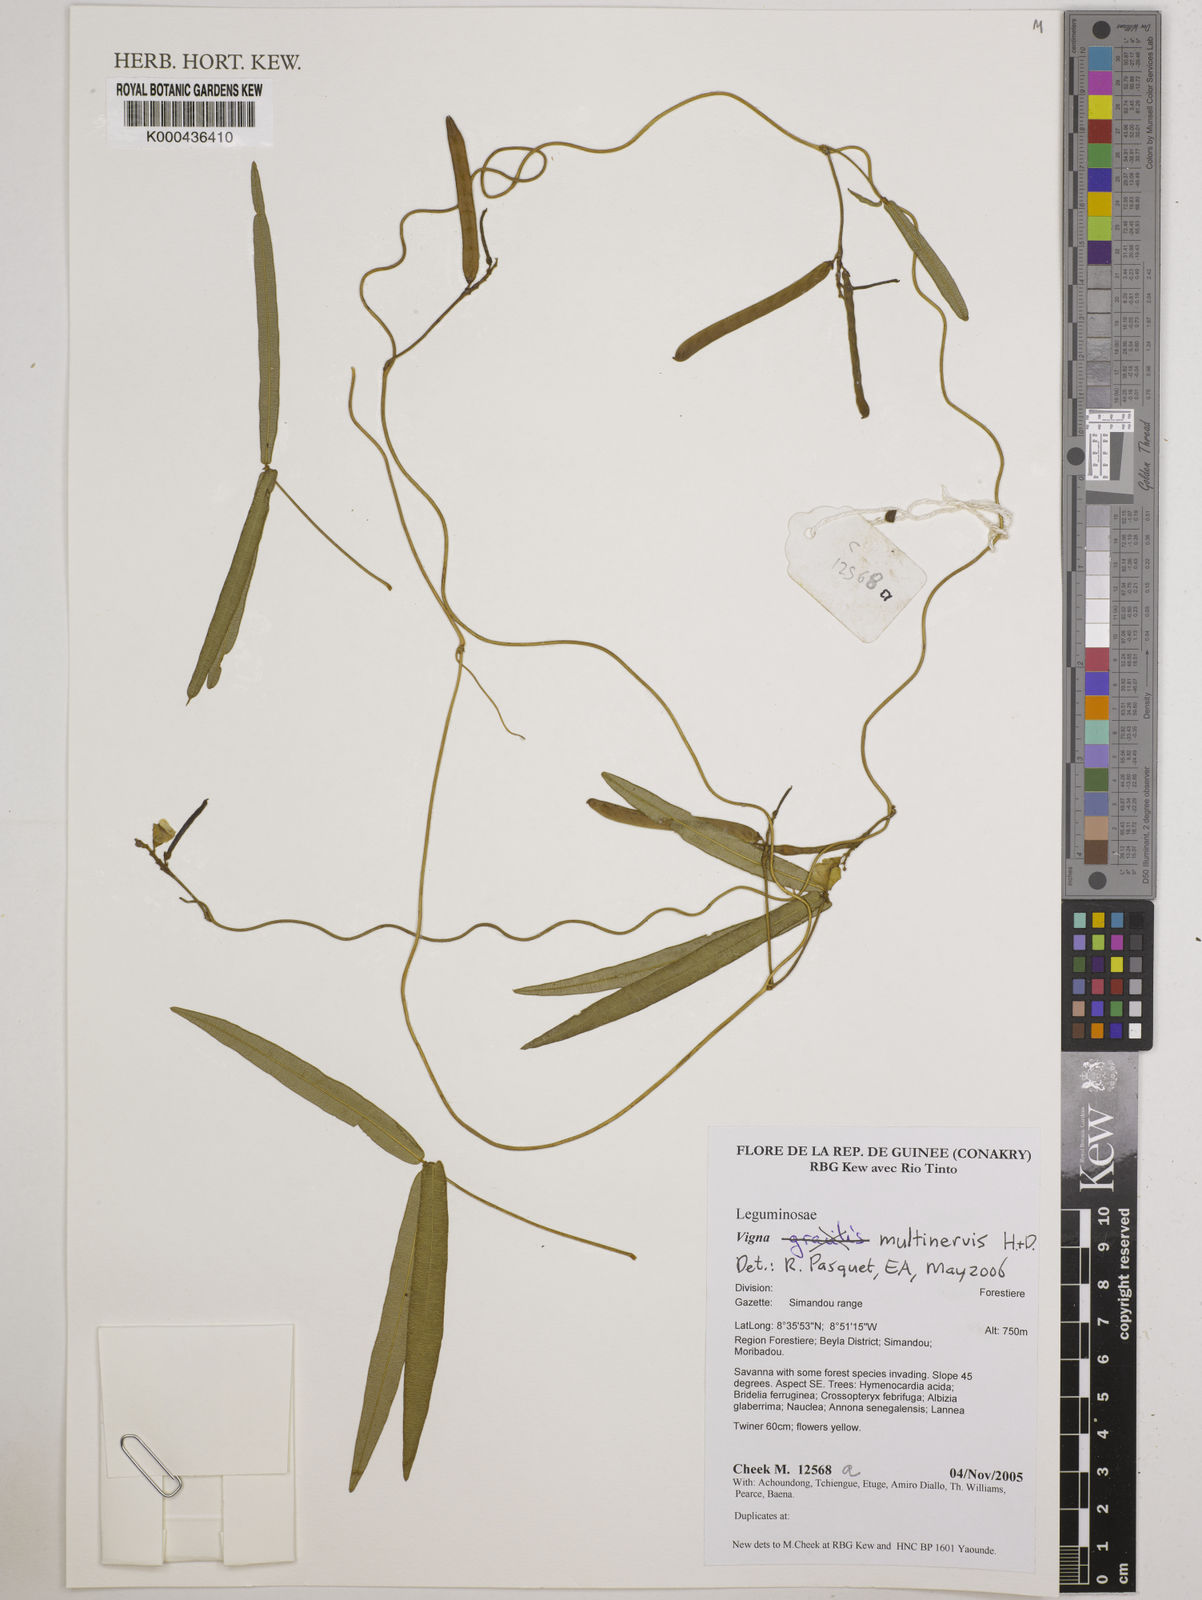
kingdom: Plantae
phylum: Tracheophyta
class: Magnoliopsida
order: Fabales
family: Fabaceae
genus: Vigna
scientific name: Vigna multinervis
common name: Fula-pulaar
